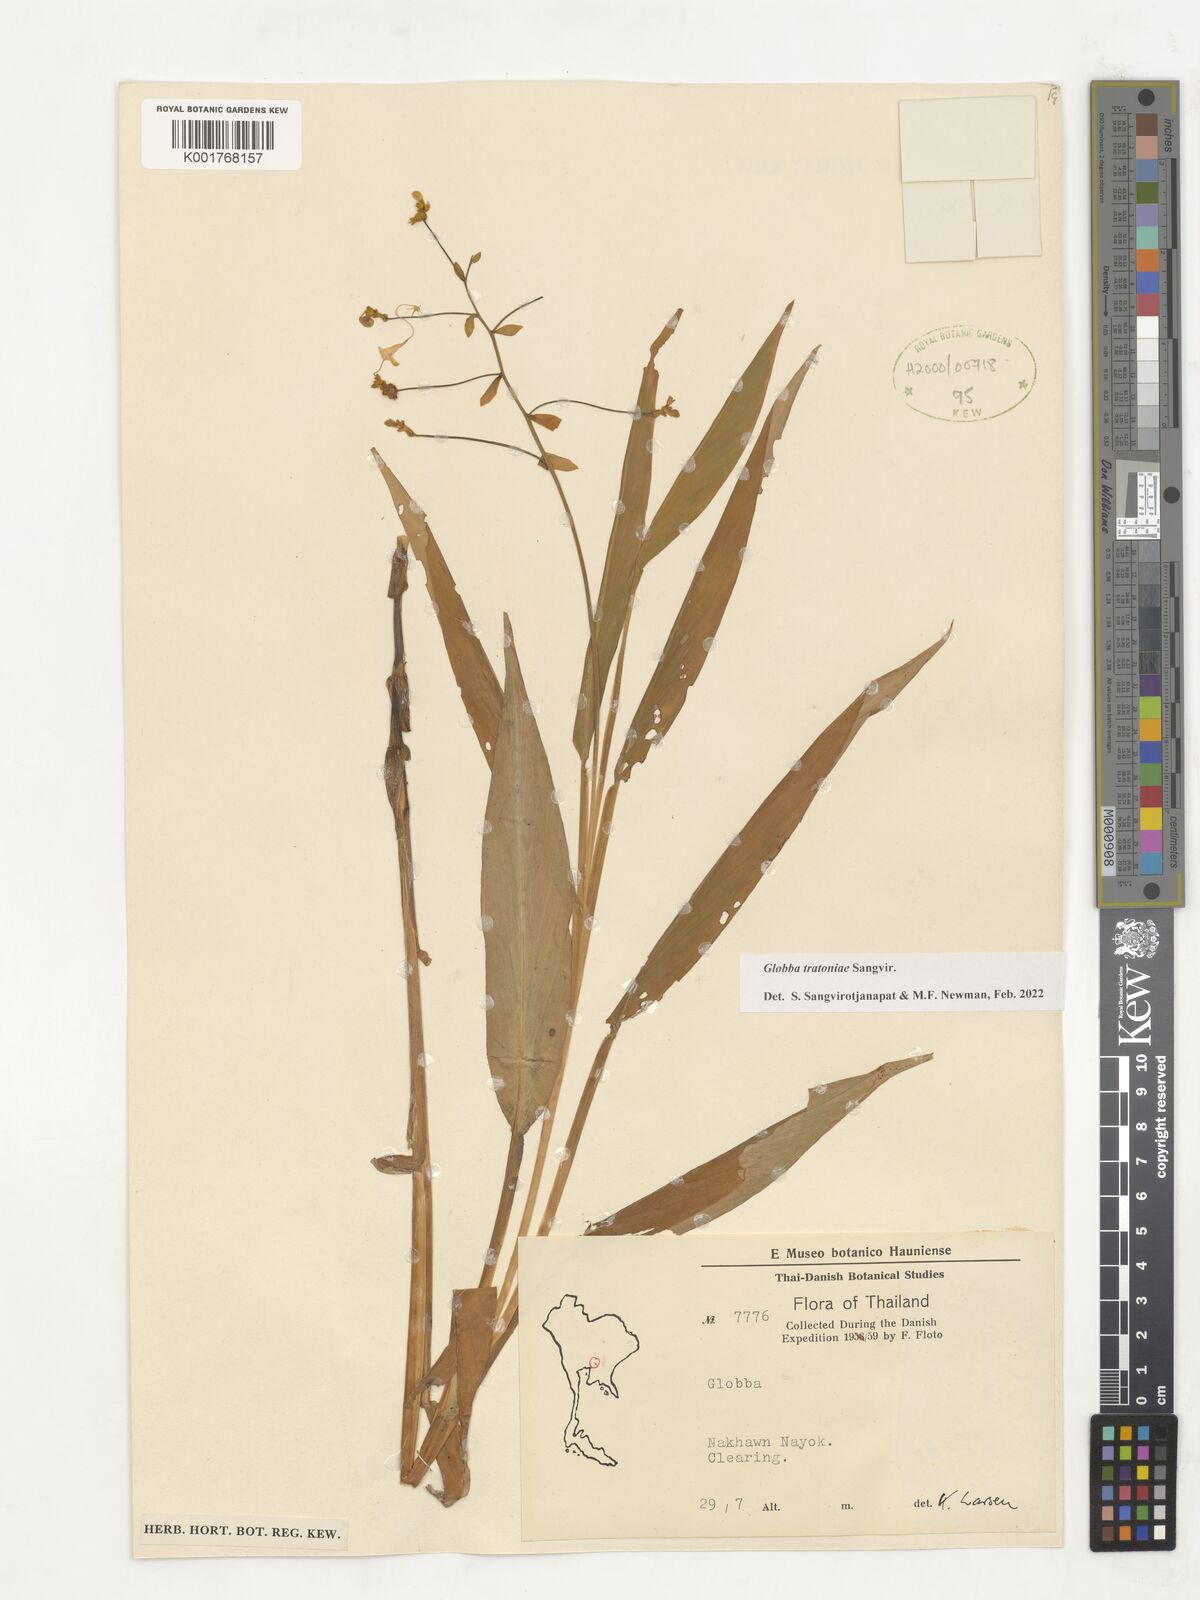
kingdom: Plantae
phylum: Tracheophyta
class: Liliopsida
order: Zingiberales
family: Zingiberaceae
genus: Globba
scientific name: Globba
